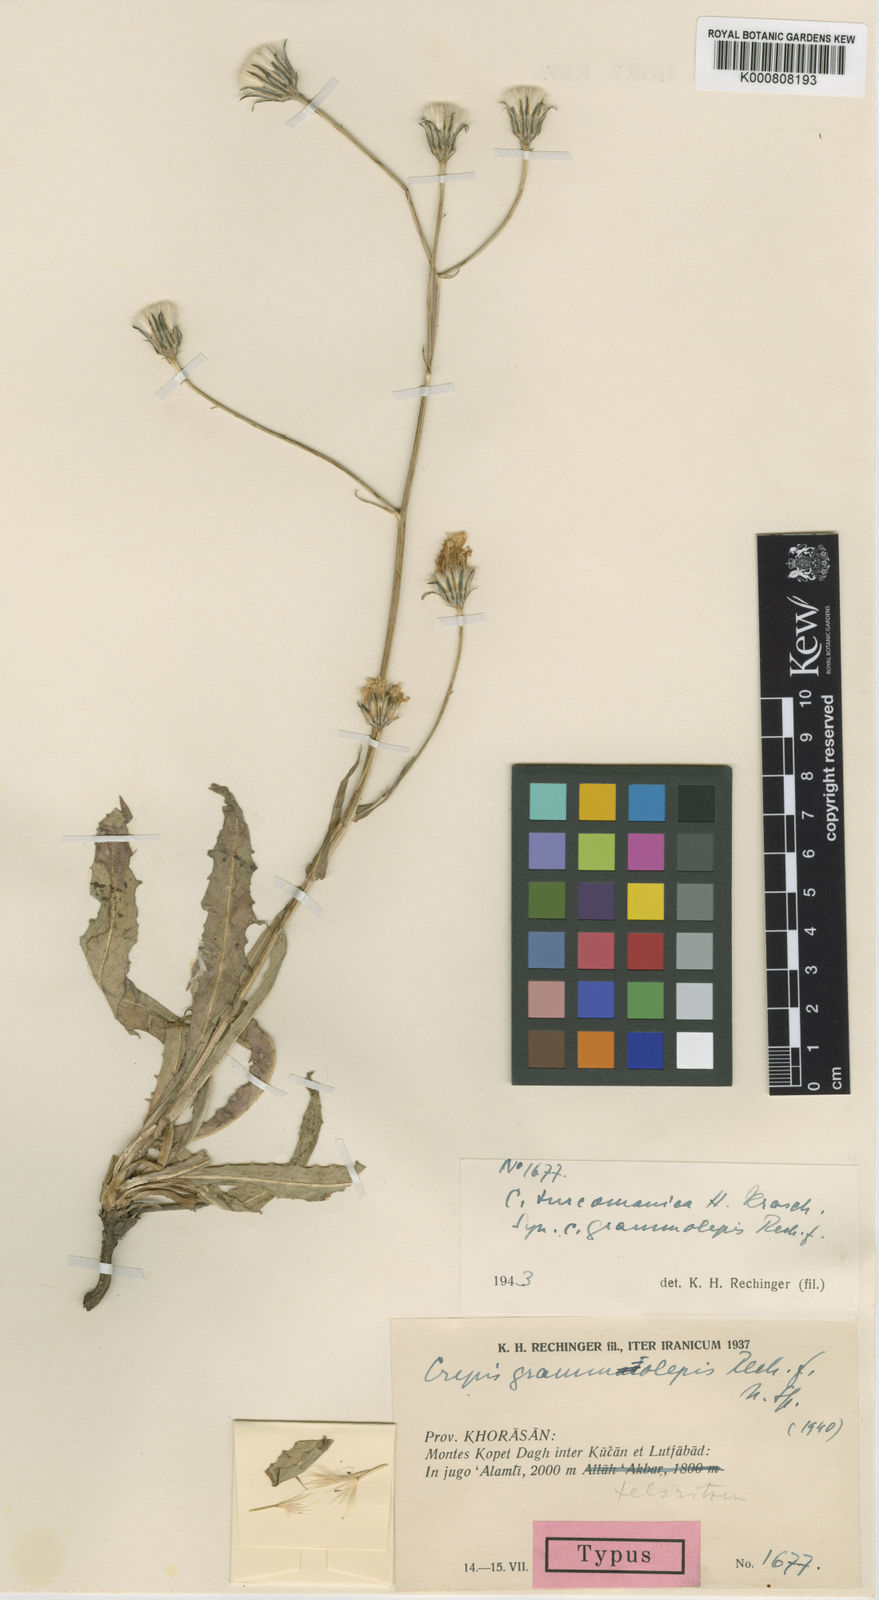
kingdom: Plantae
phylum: Tracheophyta
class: Magnoliopsida
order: Asterales
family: Asteraceae
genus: Crepis
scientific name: Crepis turcomanica
